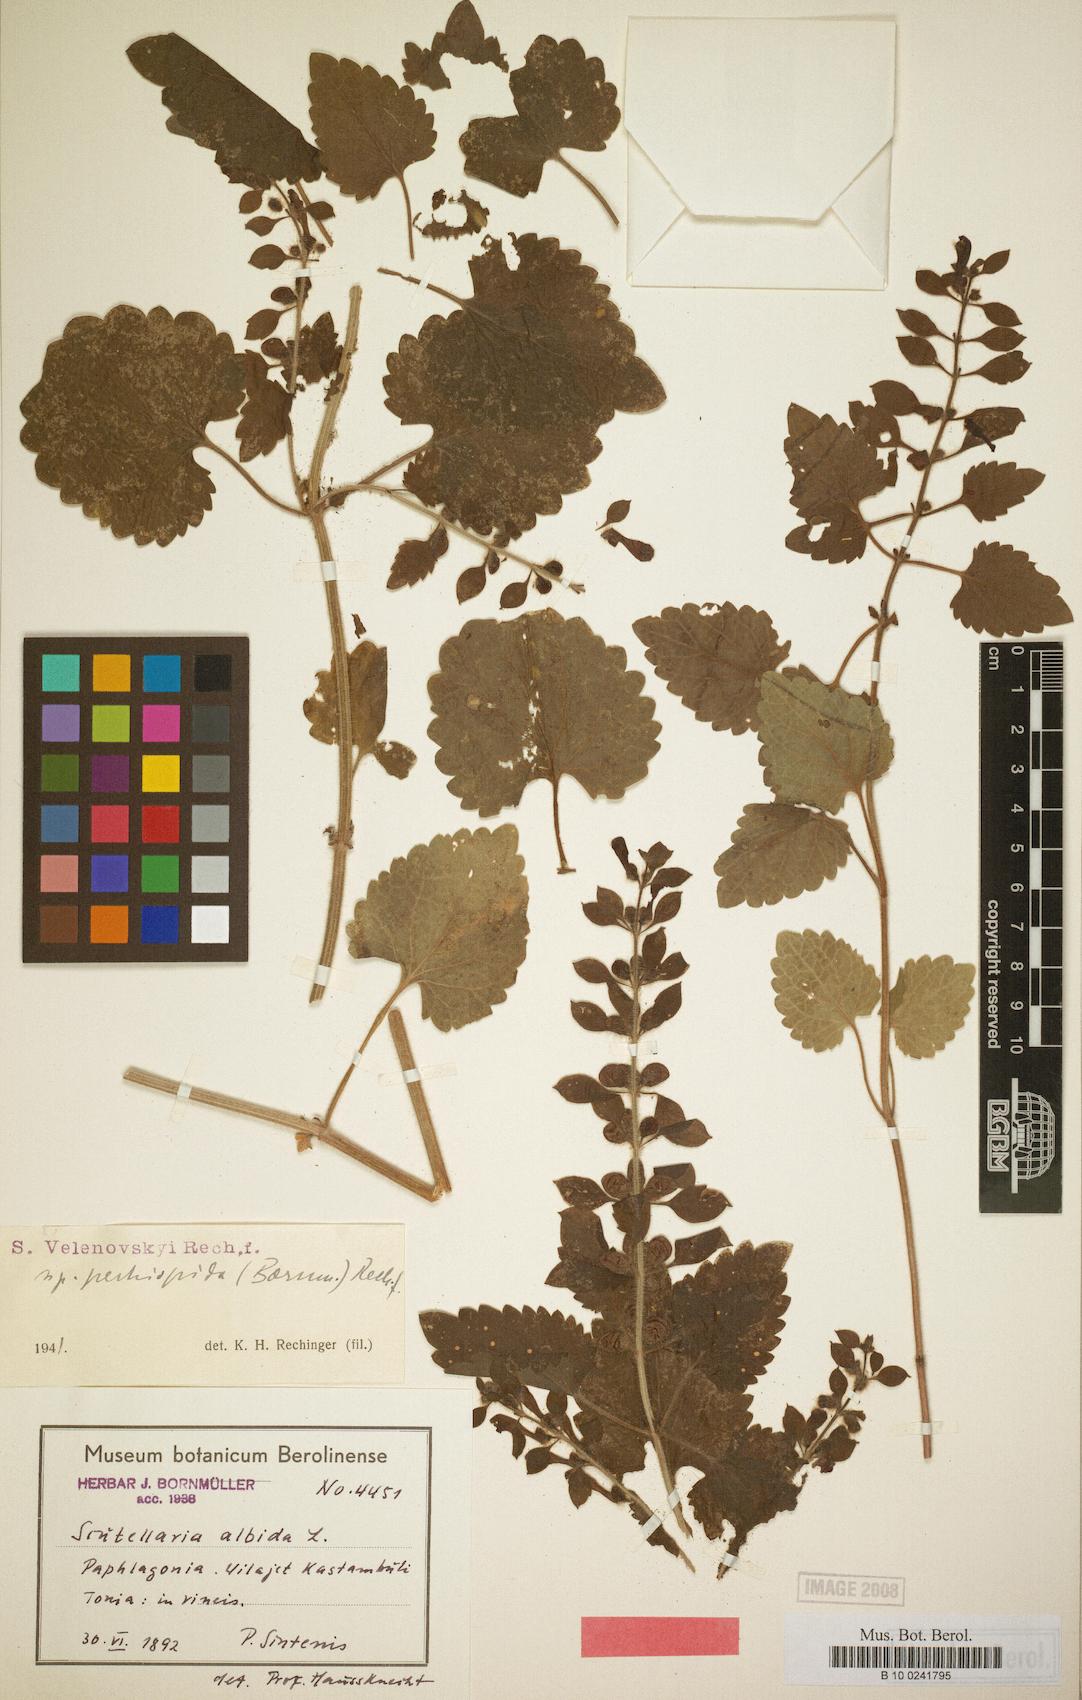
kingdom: Plantae
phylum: Tracheophyta
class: Magnoliopsida
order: Lamiales
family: Lamiaceae
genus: Scutellaria
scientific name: Scutellaria albida
